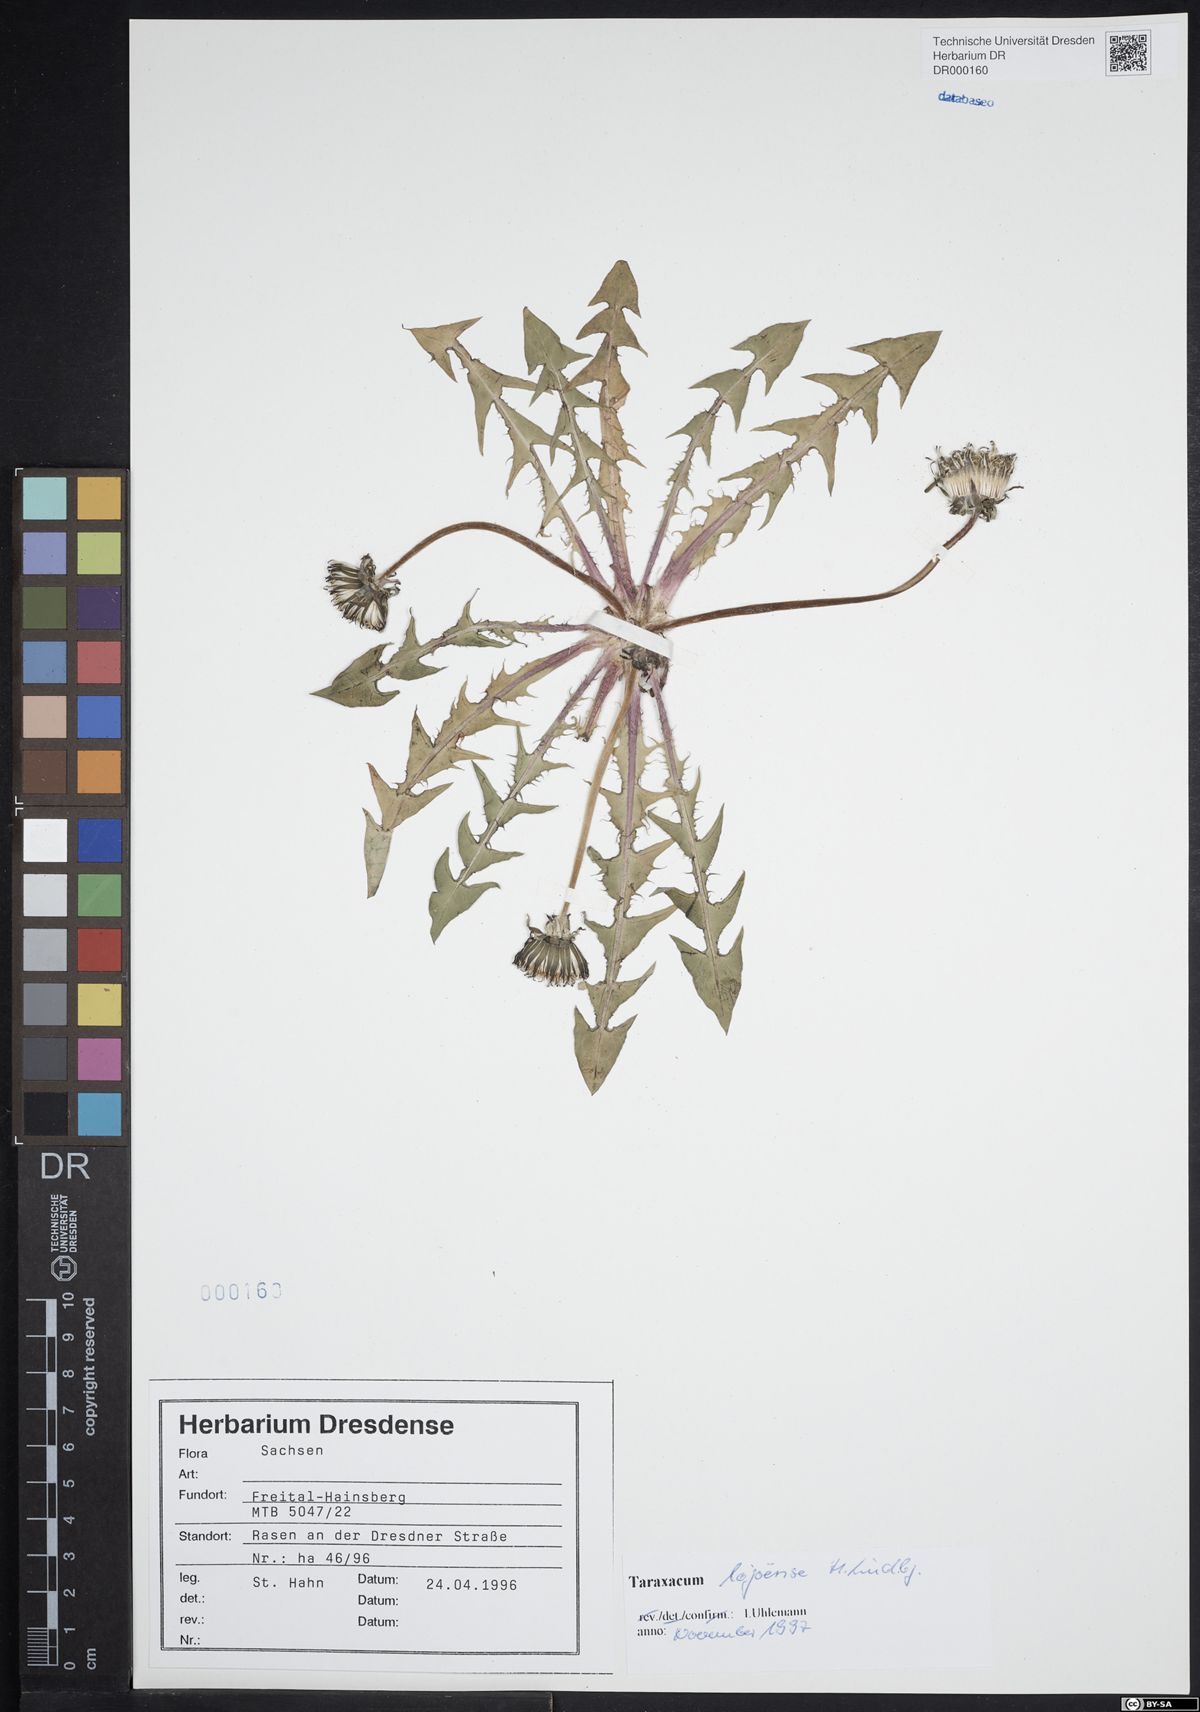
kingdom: Plantae
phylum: Tracheophyta
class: Magnoliopsida
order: Asterales
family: Asteraceae
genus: Taraxacum
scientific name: Taraxacum debrayi
